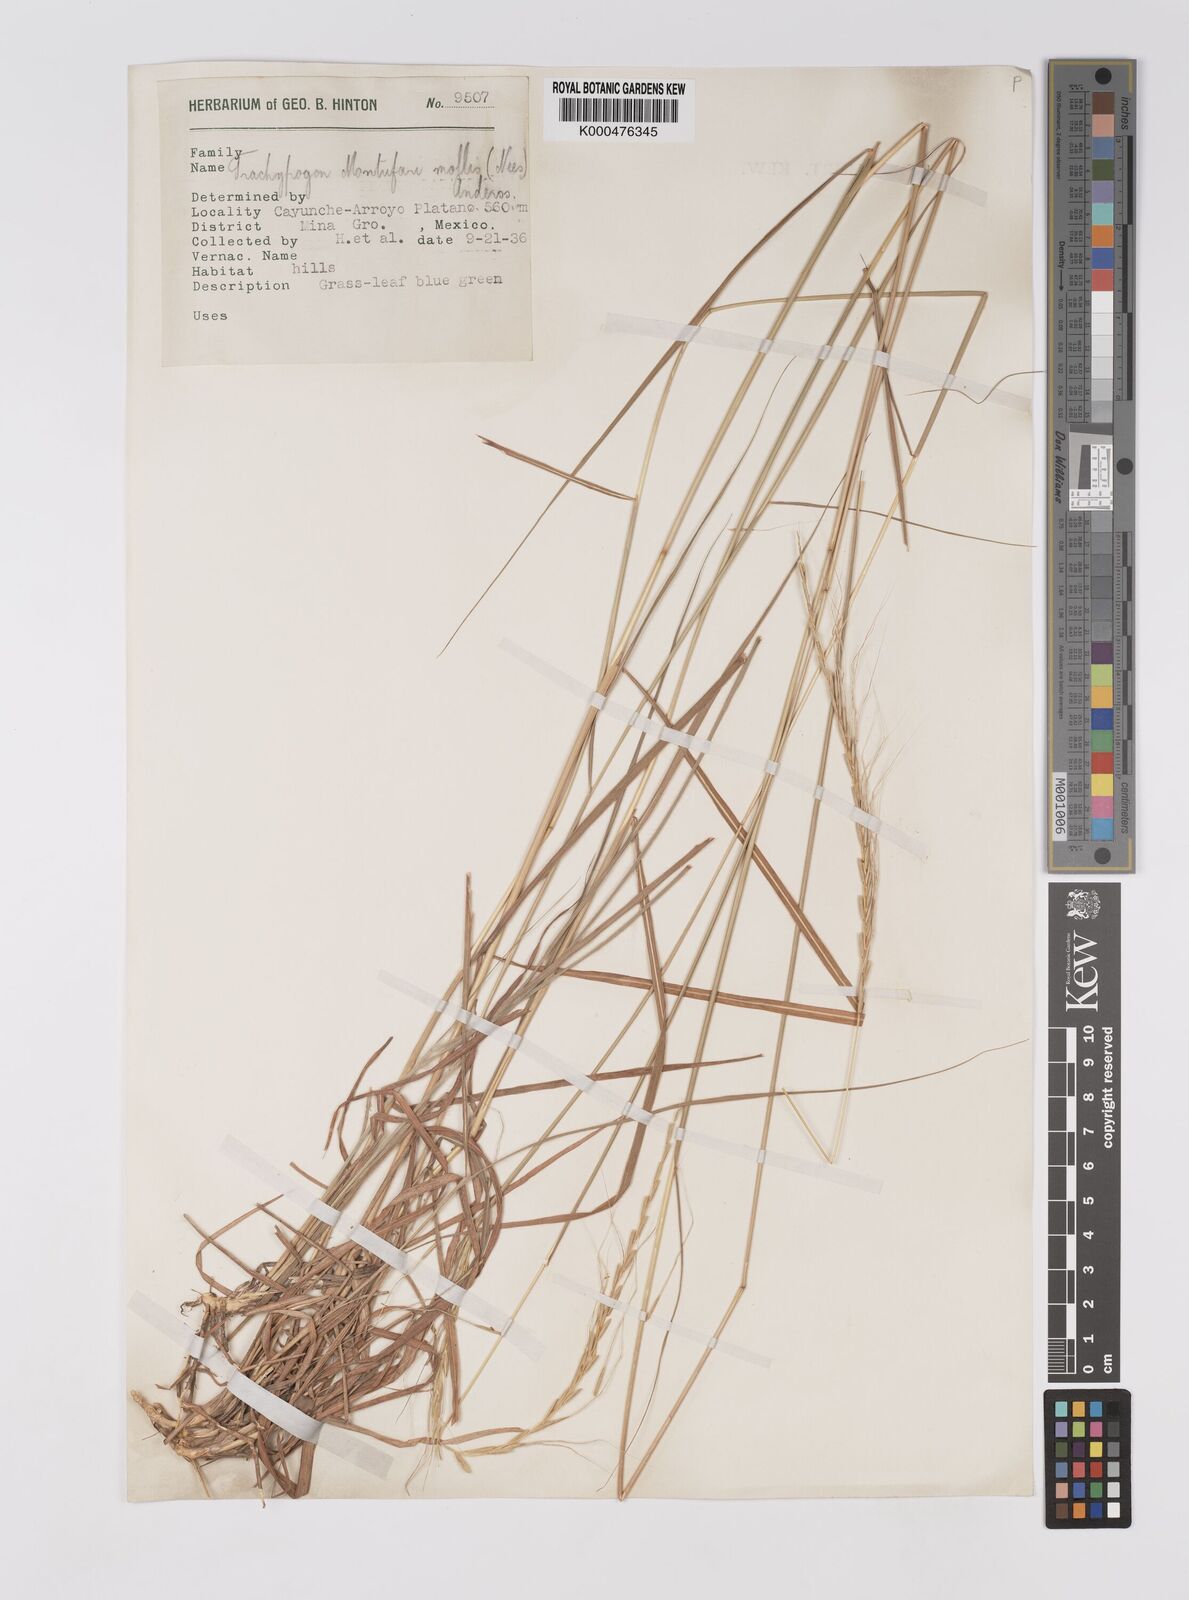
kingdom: Plantae
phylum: Tracheophyta
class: Liliopsida
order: Poales
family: Poaceae
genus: Trachypogon
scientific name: Trachypogon spicatus
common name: Crinkle-awn
